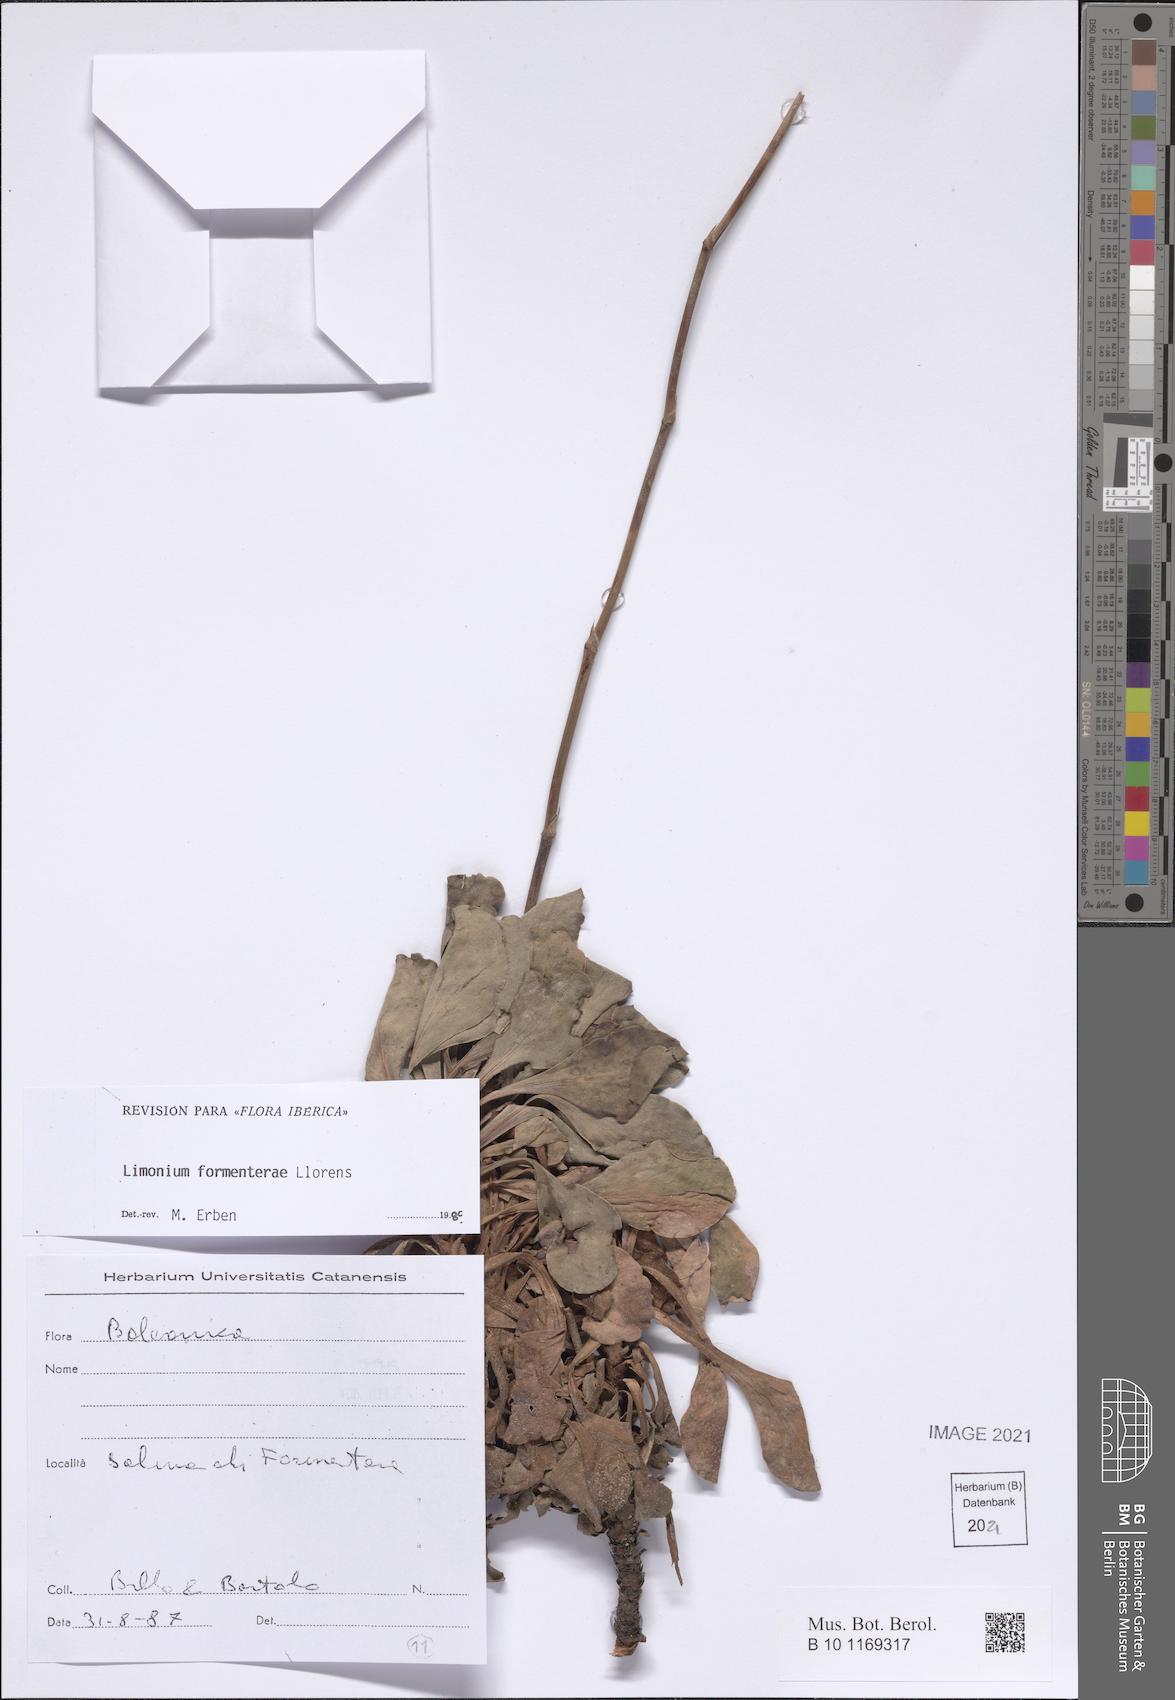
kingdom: Plantae
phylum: Tracheophyta
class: Magnoliopsida
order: Caryophyllales
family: Plumbaginaceae
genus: Limonium
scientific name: Limonium biflorum
